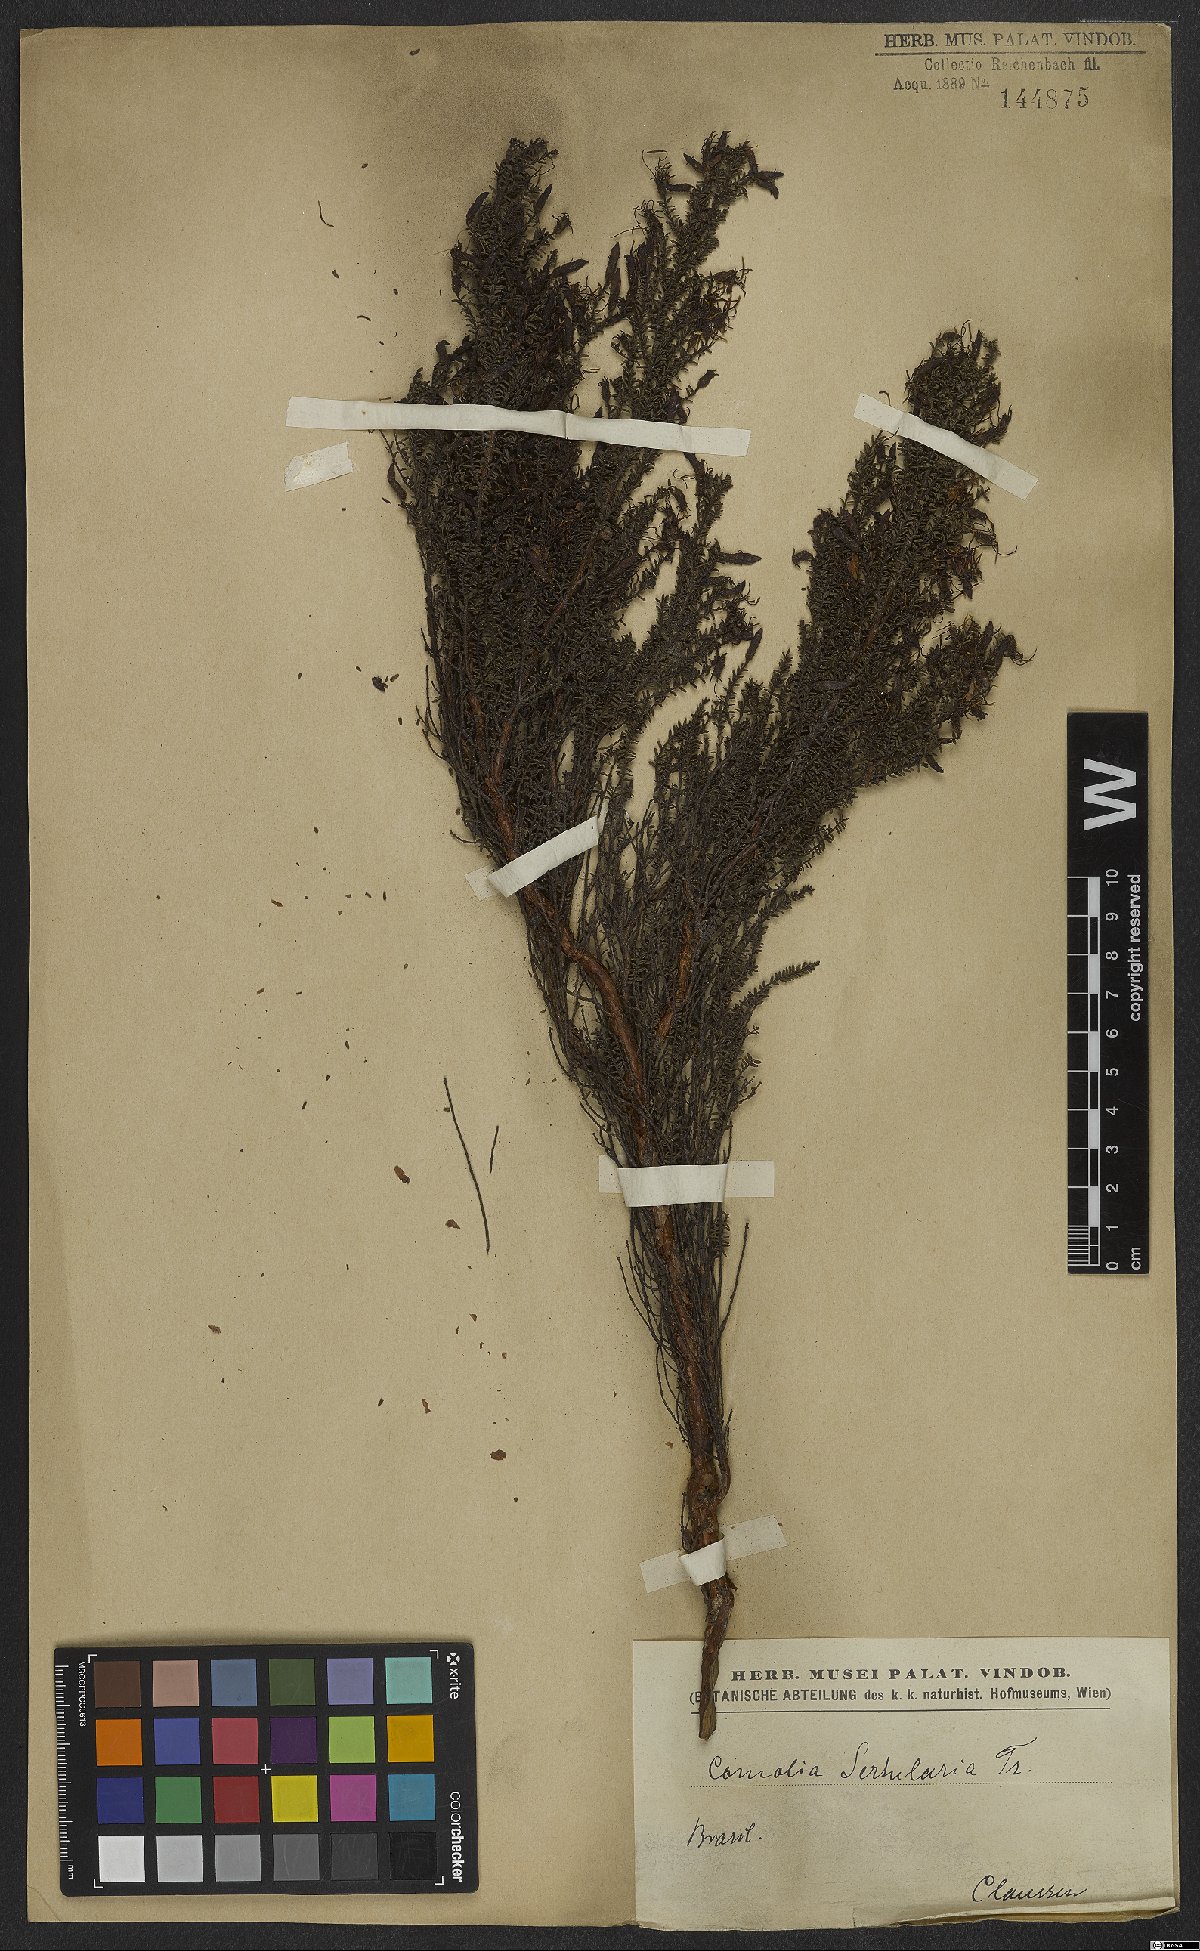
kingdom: Plantae
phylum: Tracheophyta
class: Magnoliopsida
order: Myrtales
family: Melastomataceae
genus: Fritzschia
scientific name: Fritzschia sertularia
